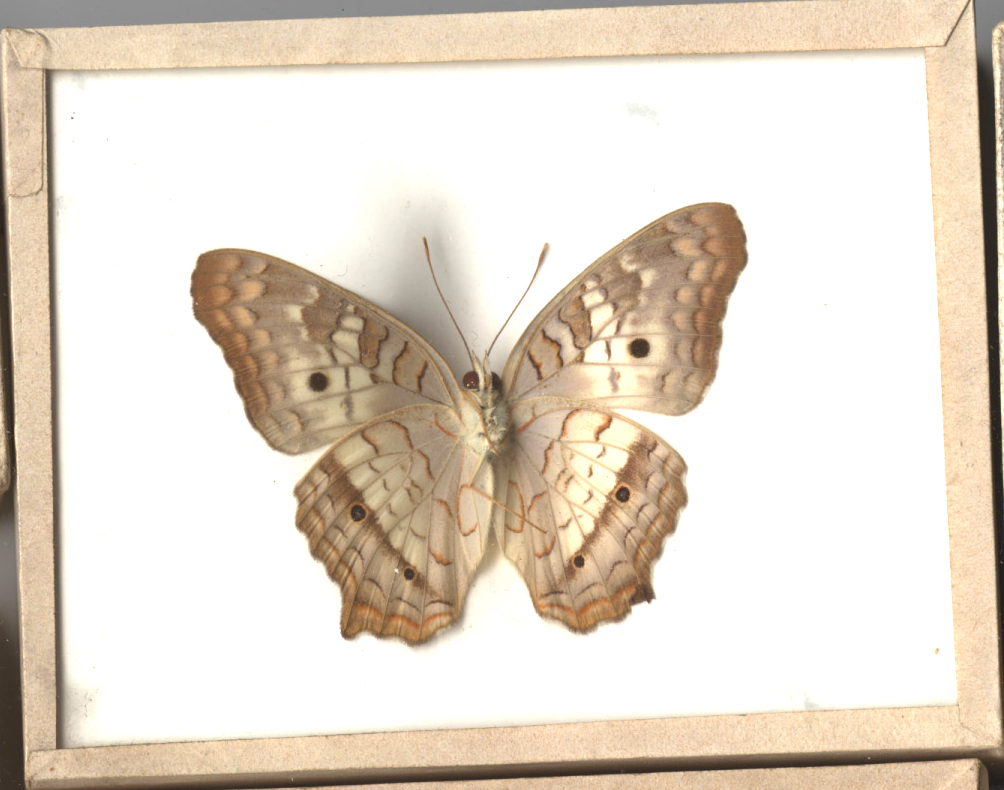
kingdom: Animalia
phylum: Arthropoda
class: Insecta
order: Lepidoptera
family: Nymphalidae
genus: Anartia
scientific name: Anartia jatrophae
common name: White Peacock
